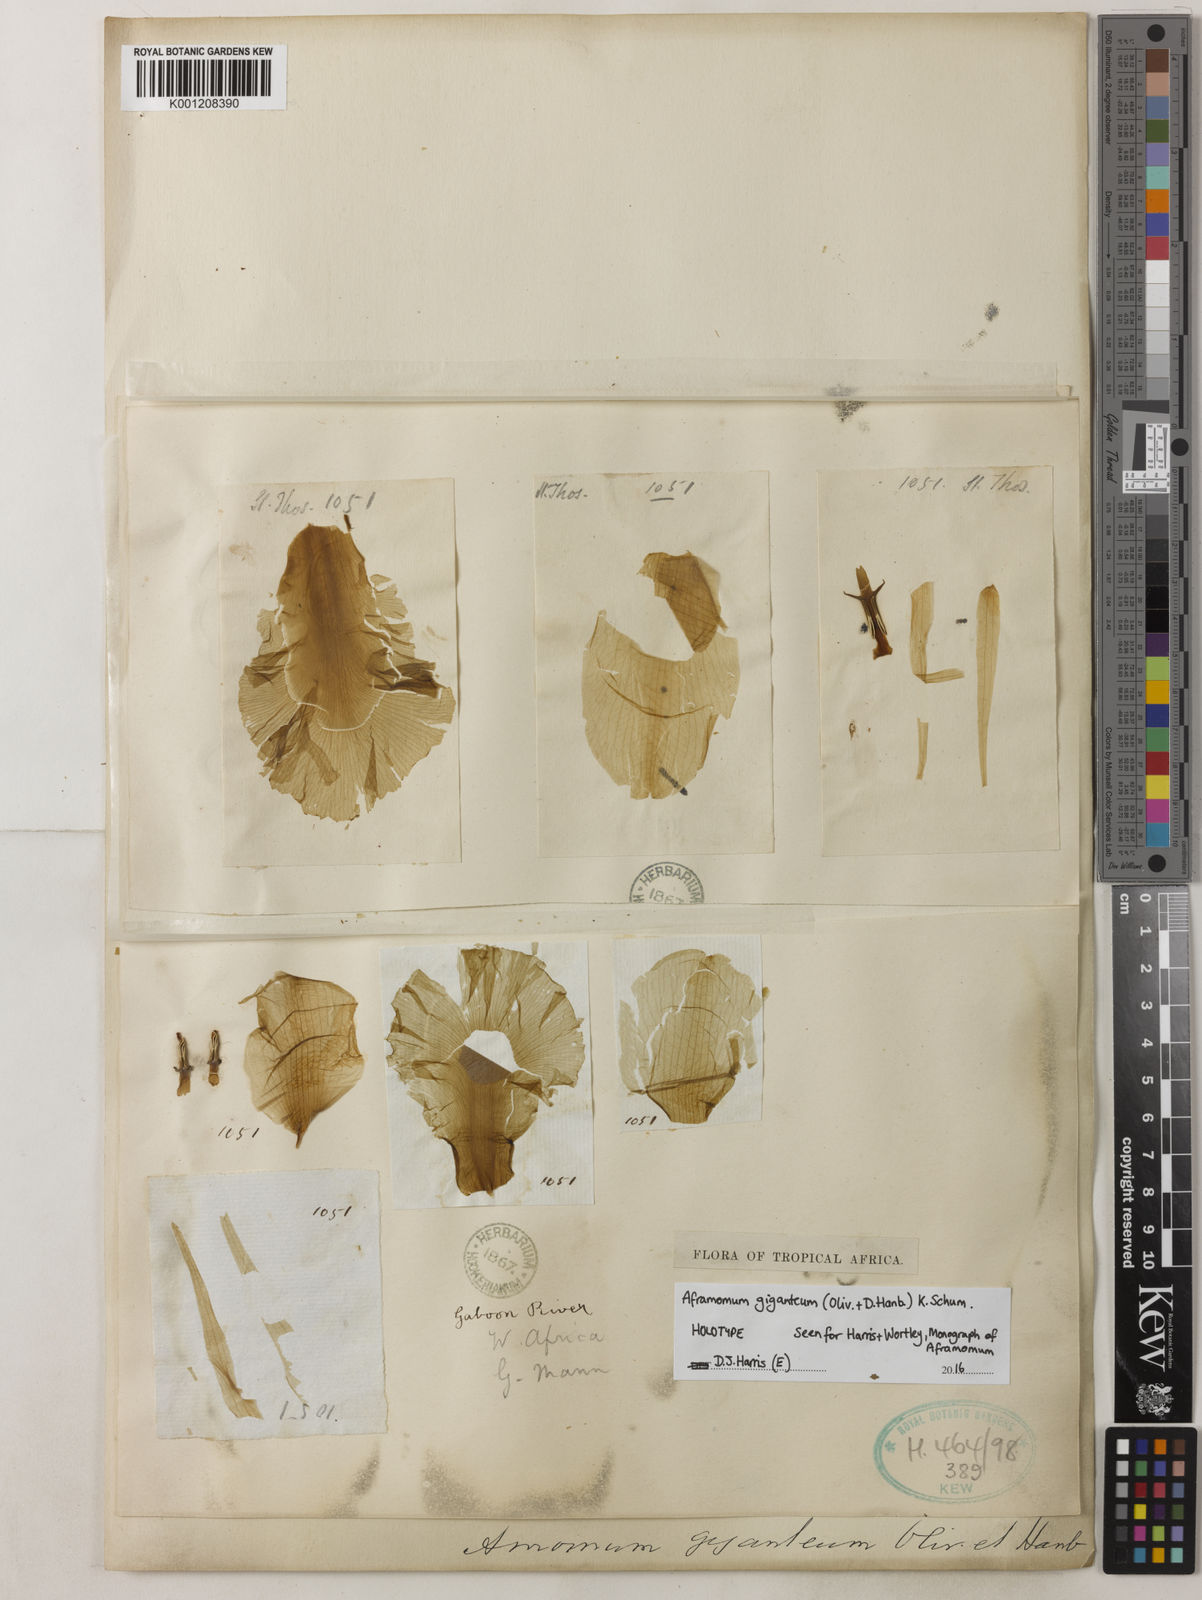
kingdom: Plantae
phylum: Tracheophyta
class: Liliopsida
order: Zingiberales
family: Zingiberaceae
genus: Aframomum
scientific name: Aframomum giganteum
